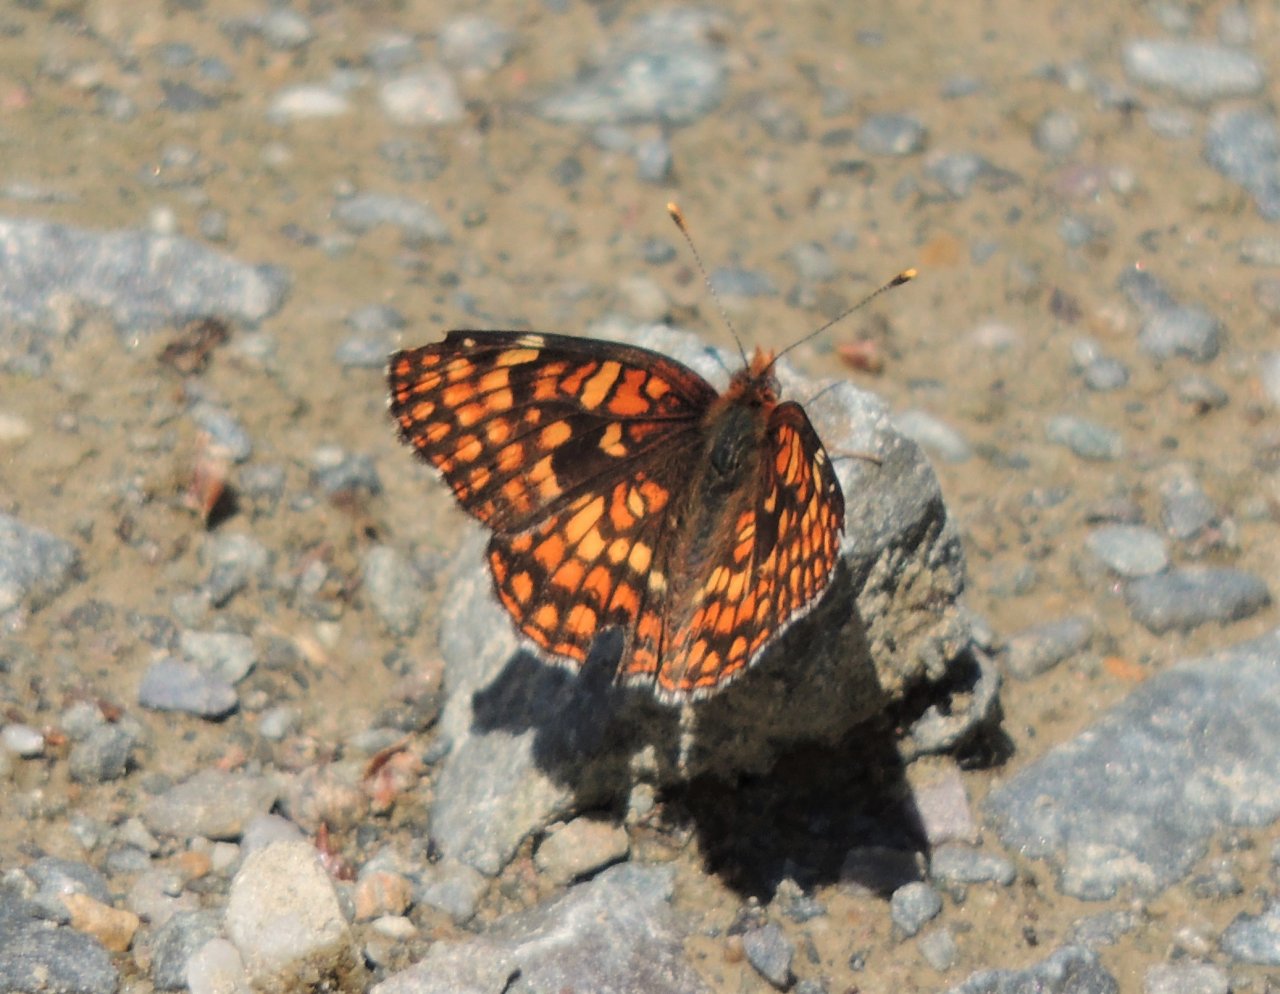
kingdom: Animalia
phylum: Arthropoda
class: Insecta
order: Lepidoptera
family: Nymphalidae
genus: Chlosyne
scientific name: Chlosyne palla
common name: Northern Checkerspot
